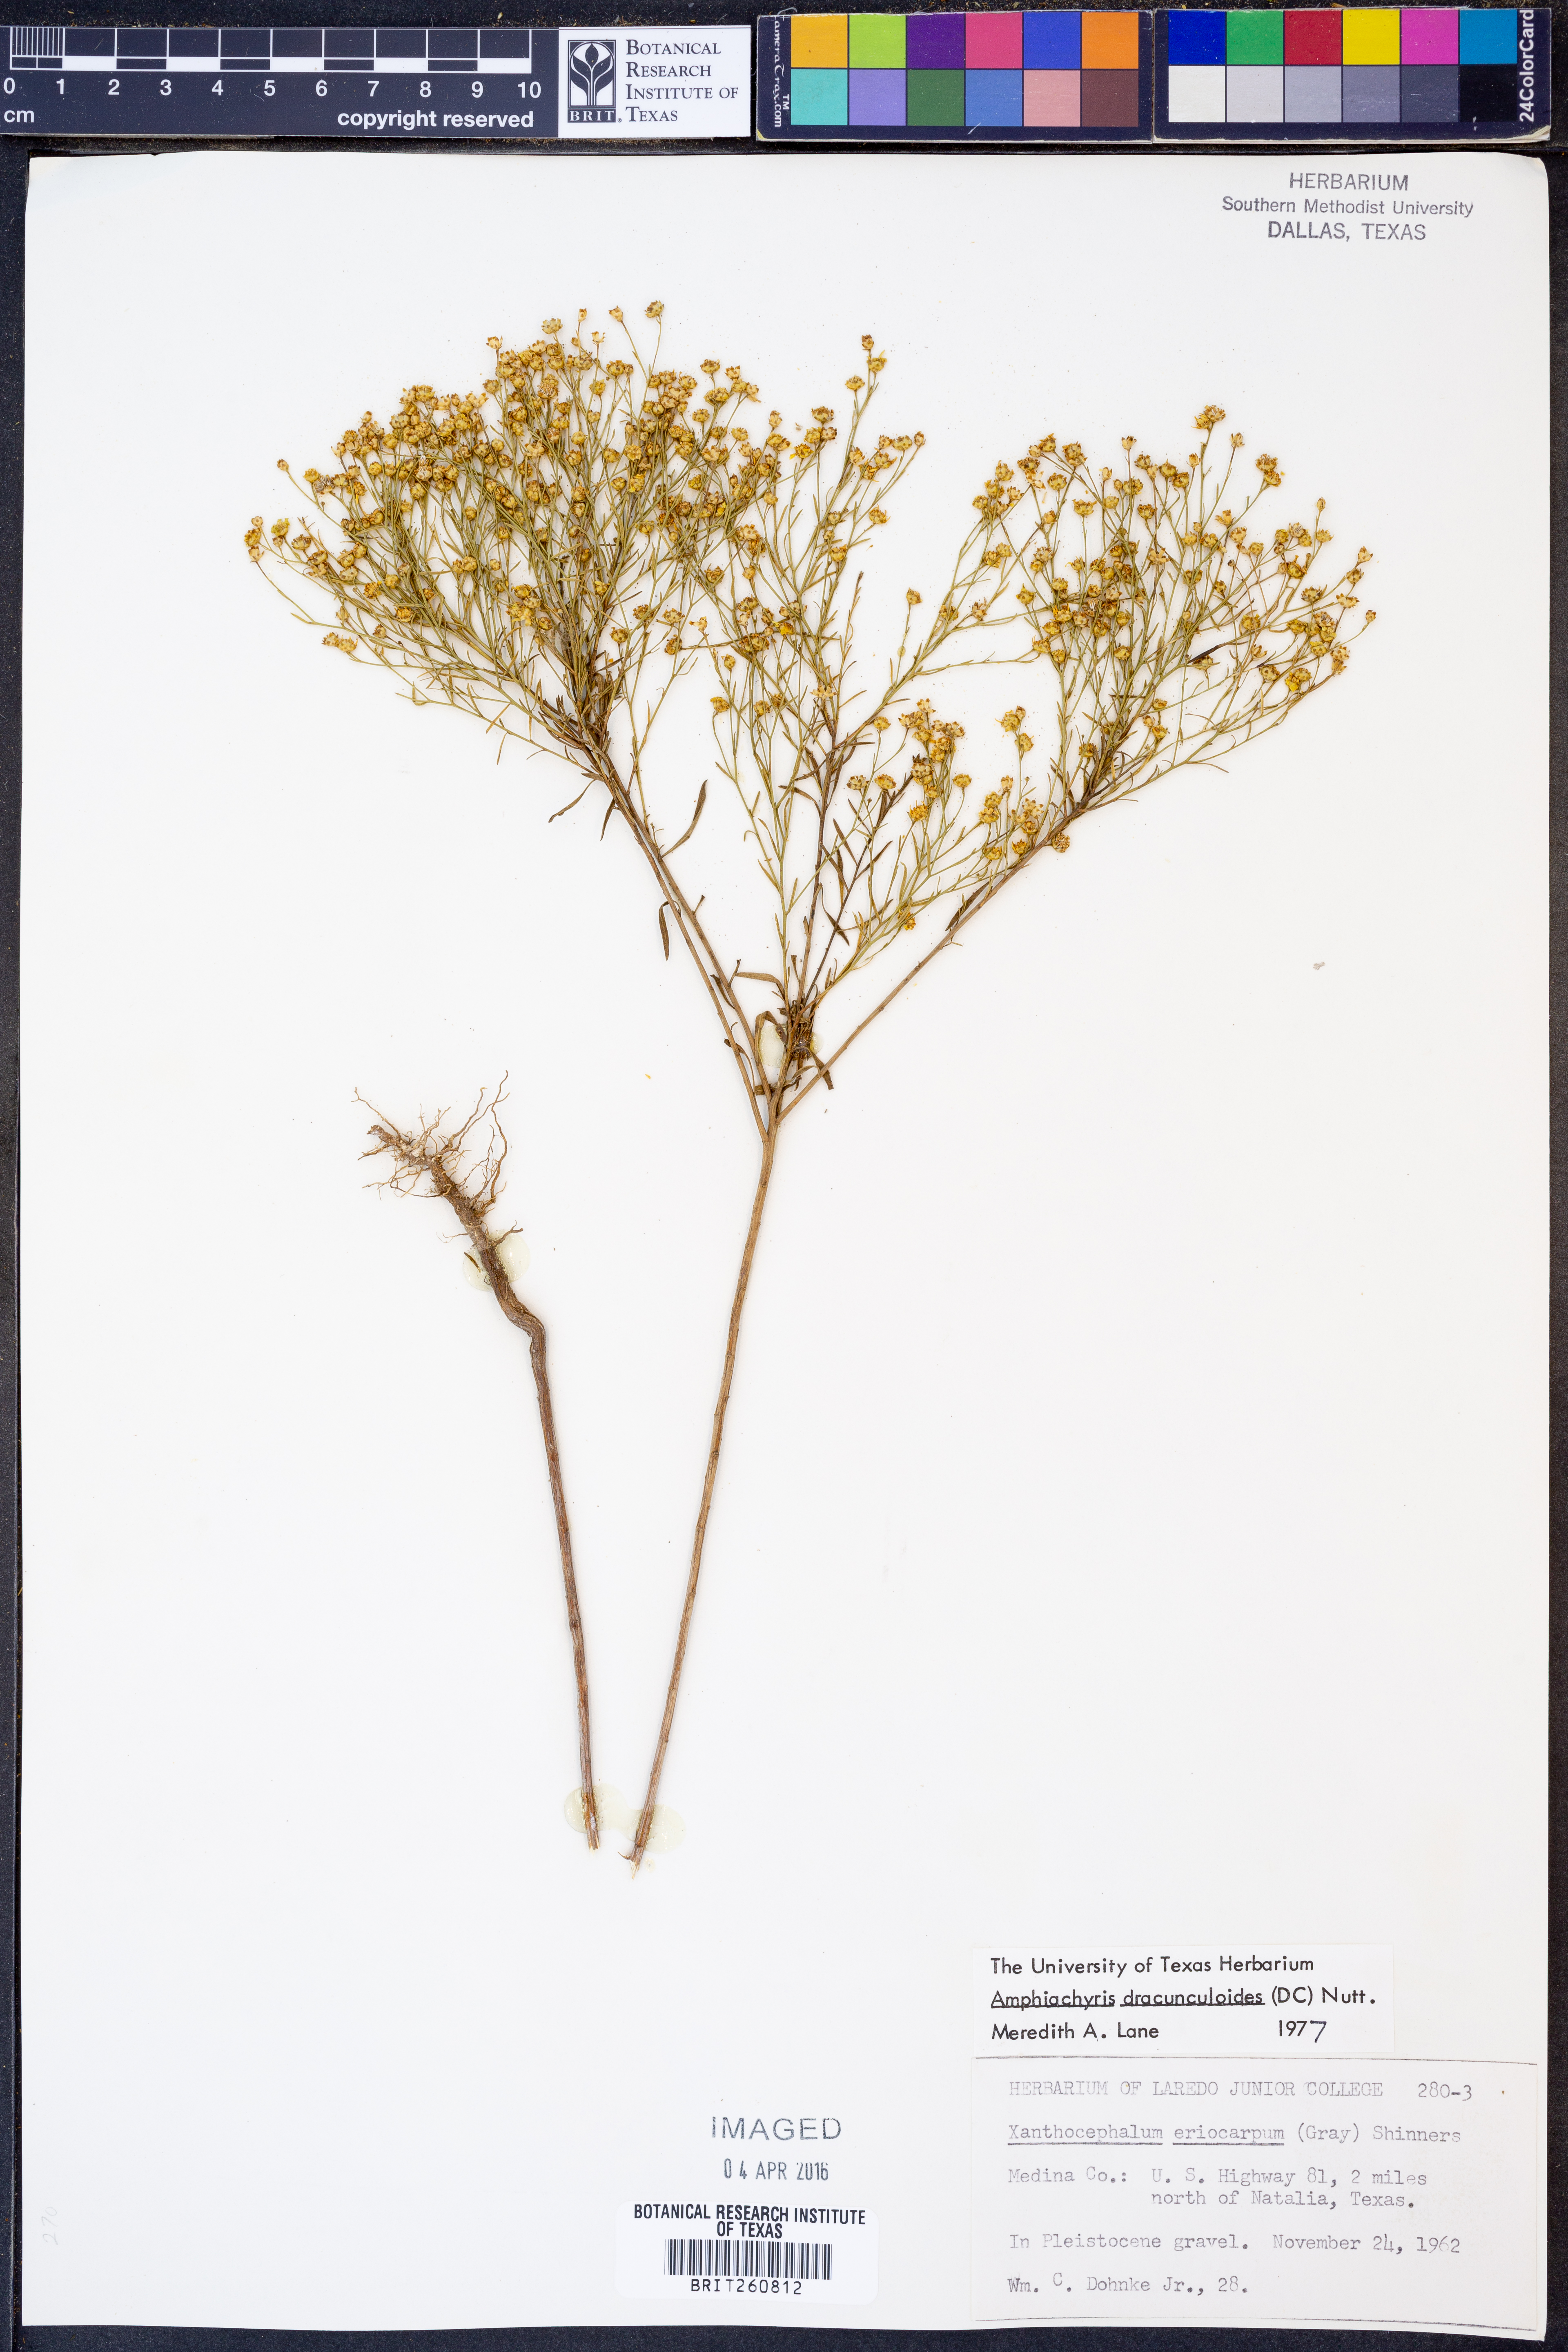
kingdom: Plantae
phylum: Tracheophyta
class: Magnoliopsida
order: Asterales
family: Asteraceae
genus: Amphiachyris
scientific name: Amphiachyris dracunculoides
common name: Broomweed
